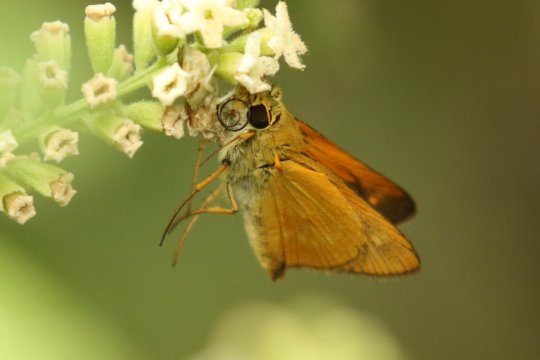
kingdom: Animalia
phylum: Arthropoda
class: Insecta
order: Lepidoptera
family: Hesperiidae
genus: Wallengrenia
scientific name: Wallengrenia otho
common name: Southern Broken-Dash
